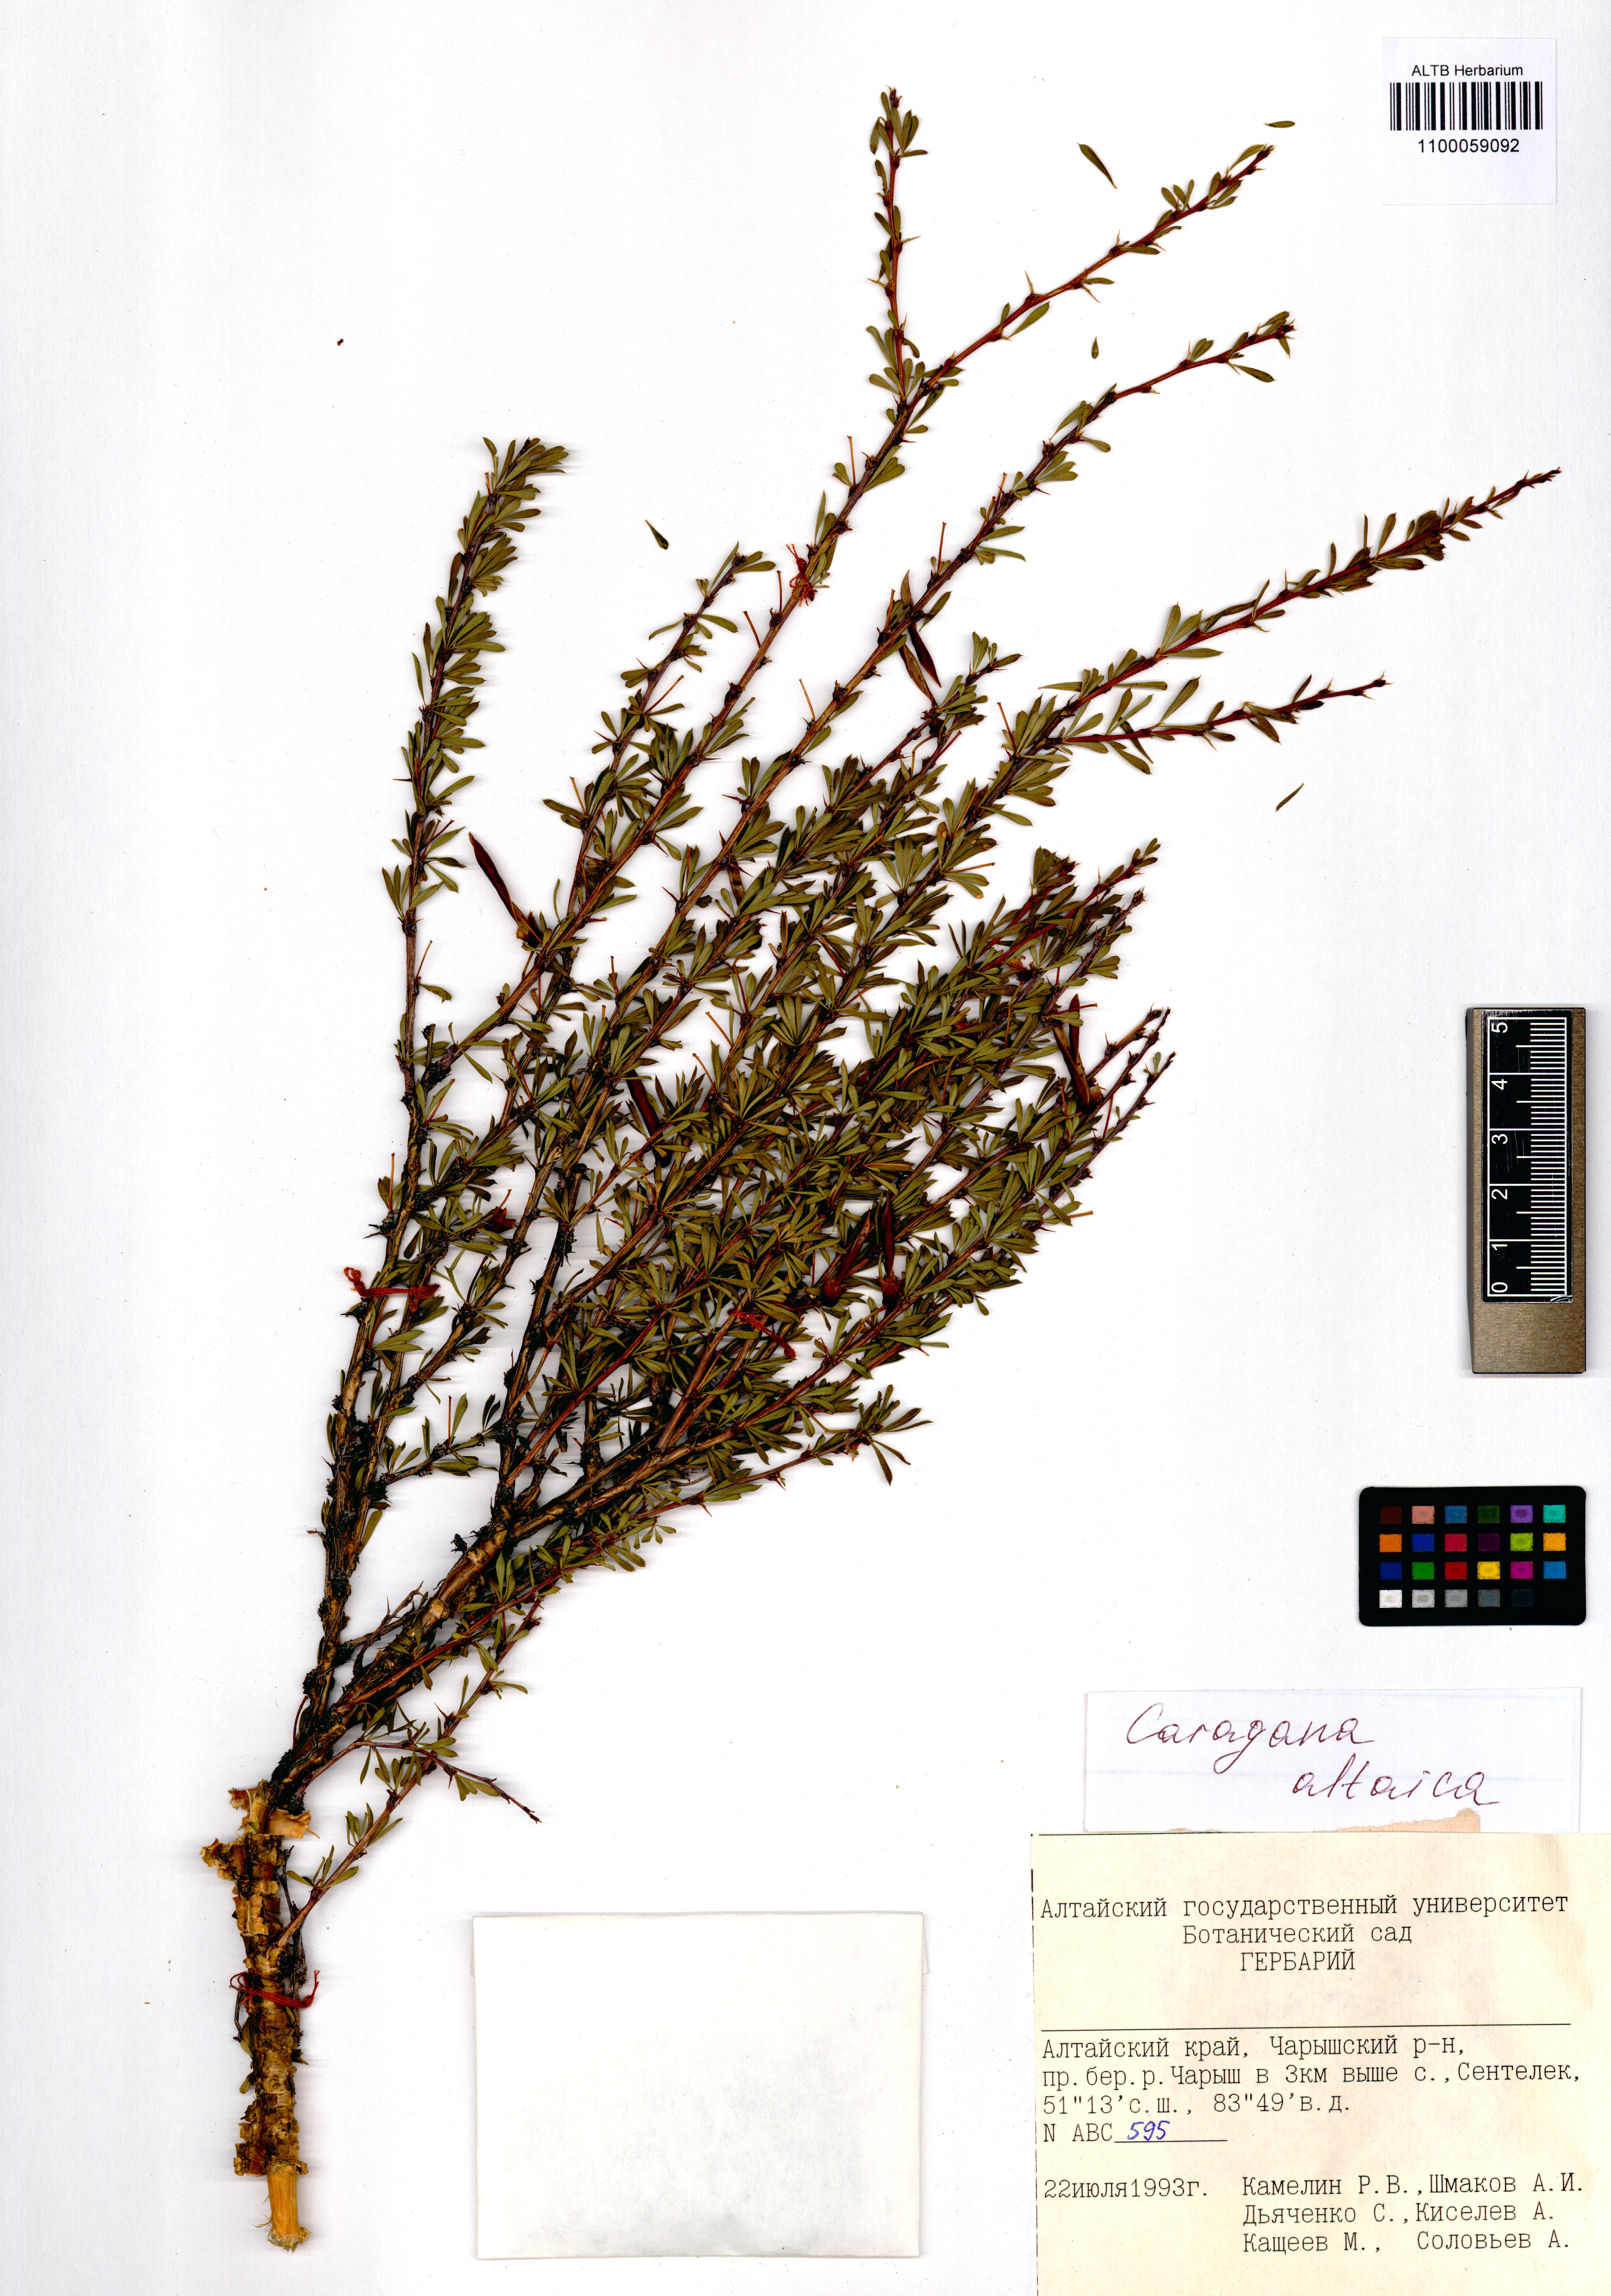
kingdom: Plantae
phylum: Tracheophyta
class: Magnoliopsida
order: Fabales
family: Fabaceae
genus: Caragana
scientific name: Caragana pygmaea
